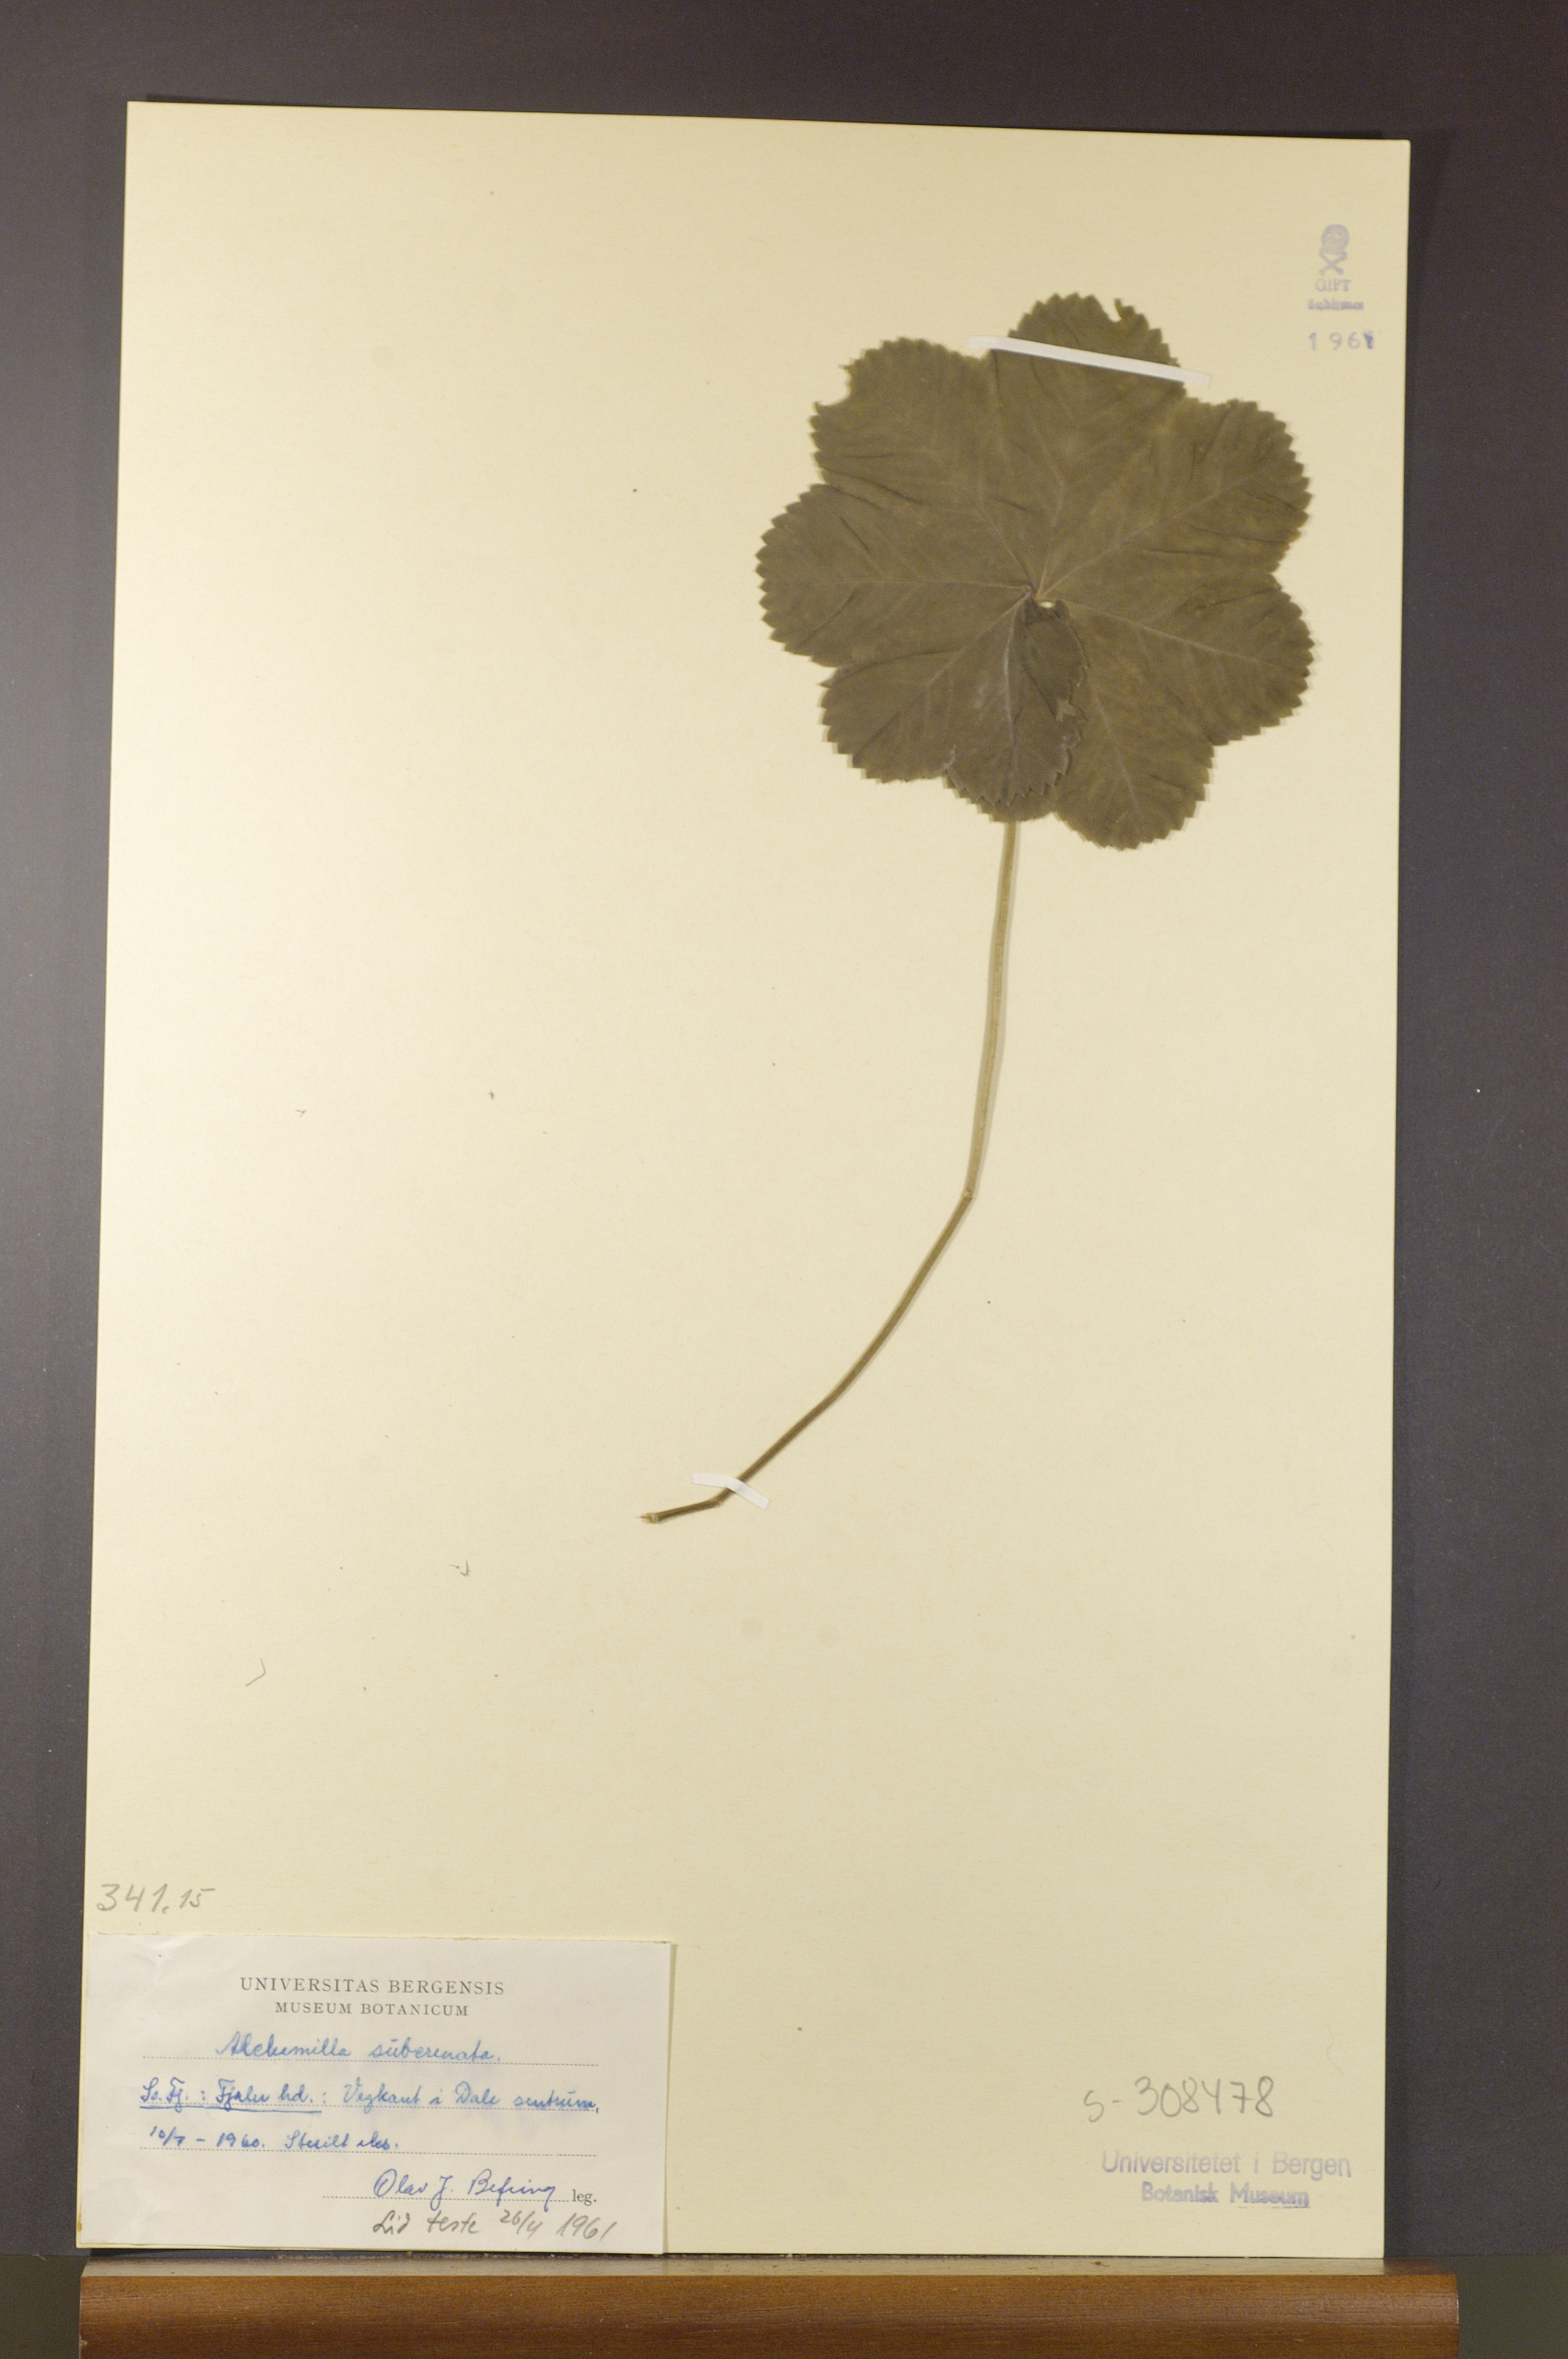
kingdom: Plantae
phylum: Tracheophyta
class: Magnoliopsida
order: Rosales
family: Rosaceae
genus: Alchemilla
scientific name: Alchemilla subcrenata
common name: Broadtooth lady's mantle
